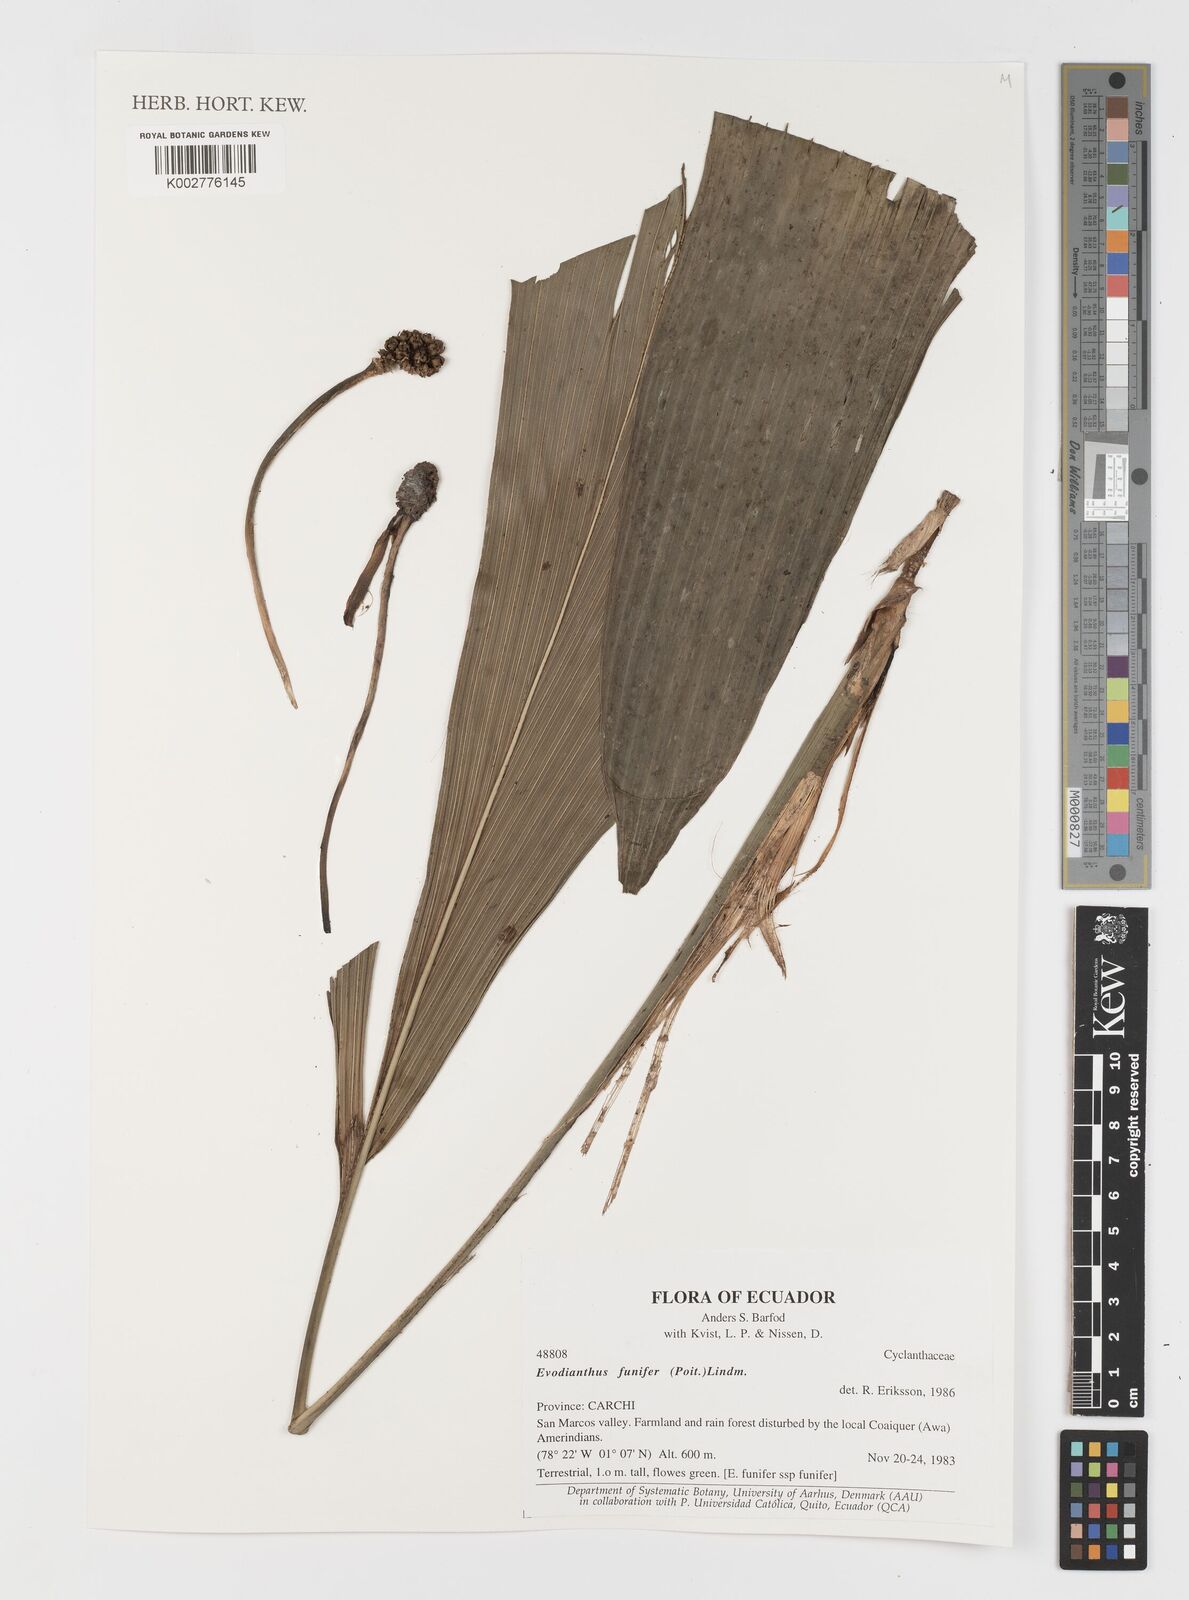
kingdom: Plantae
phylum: Tracheophyta
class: Liliopsida
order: Pandanales
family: Cyclanthaceae
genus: Evodianthus
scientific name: Evodianthus funifer
